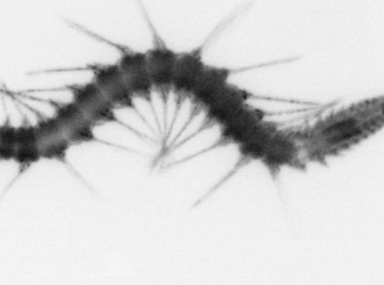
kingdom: Animalia
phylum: Annelida
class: Polychaeta
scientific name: Polychaeta
